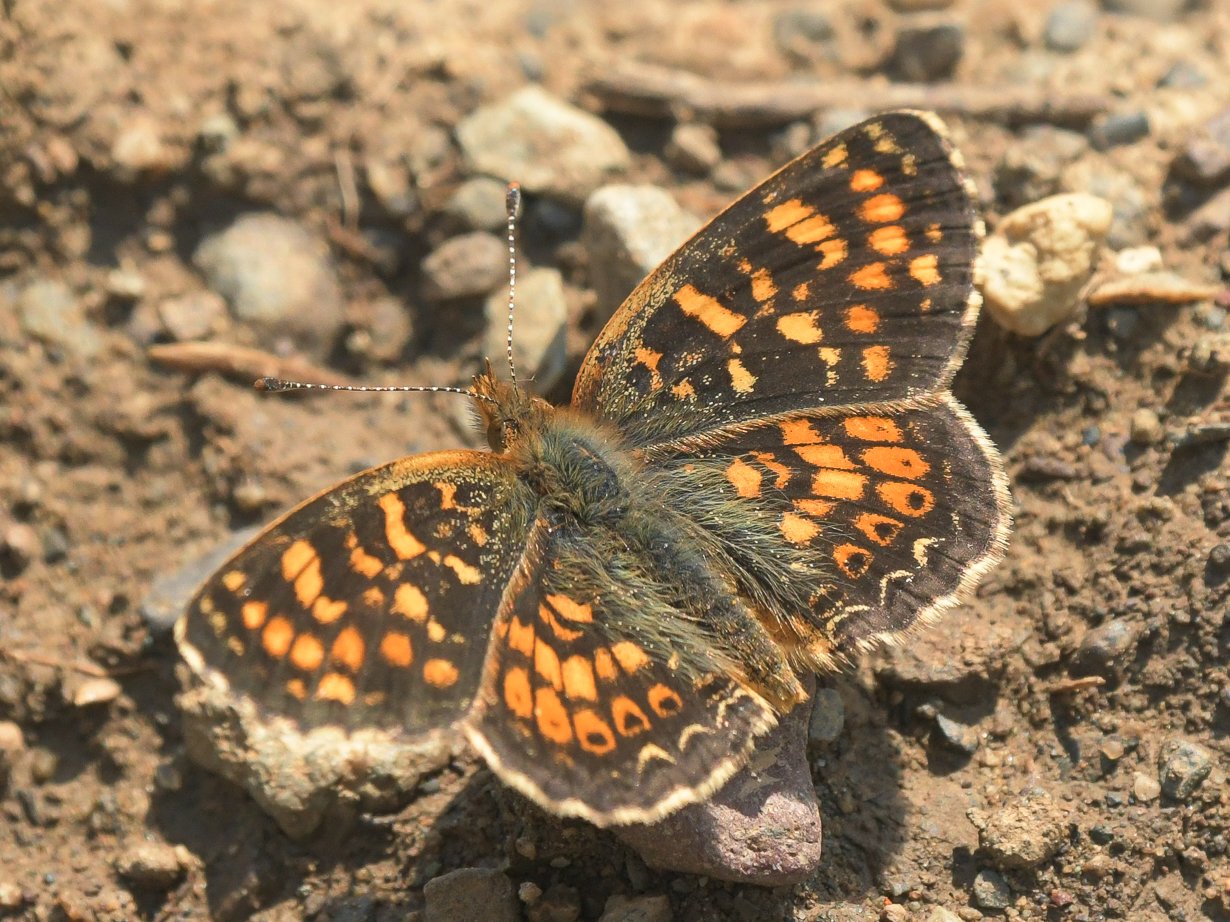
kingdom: Animalia
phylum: Arthropoda
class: Insecta
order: Lepidoptera
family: Nymphalidae
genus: Phyciodes
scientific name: Phyciodes tharos
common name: Field Crescent
